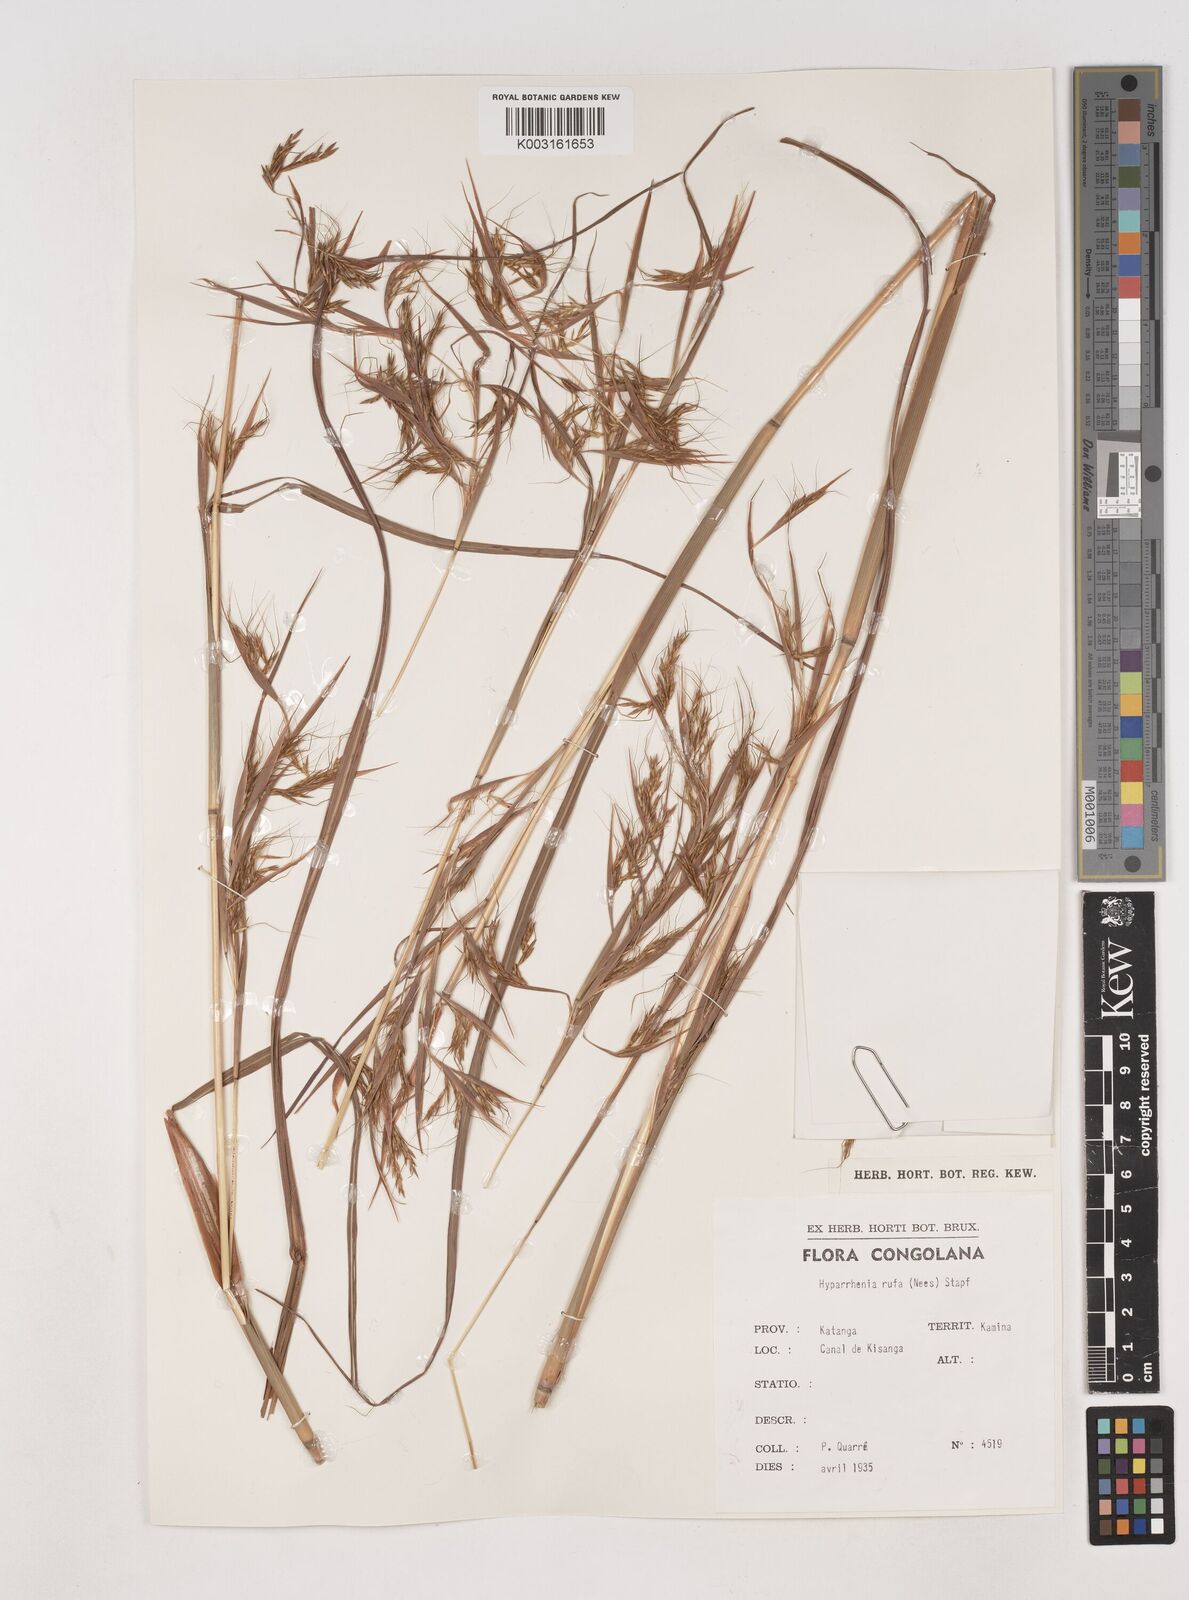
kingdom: Plantae
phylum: Tracheophyta
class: Liliopsida
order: Poales
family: Poaceae
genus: Hyparrhenia
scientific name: Hyparrhenia rufa
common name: Jaraguagrass
